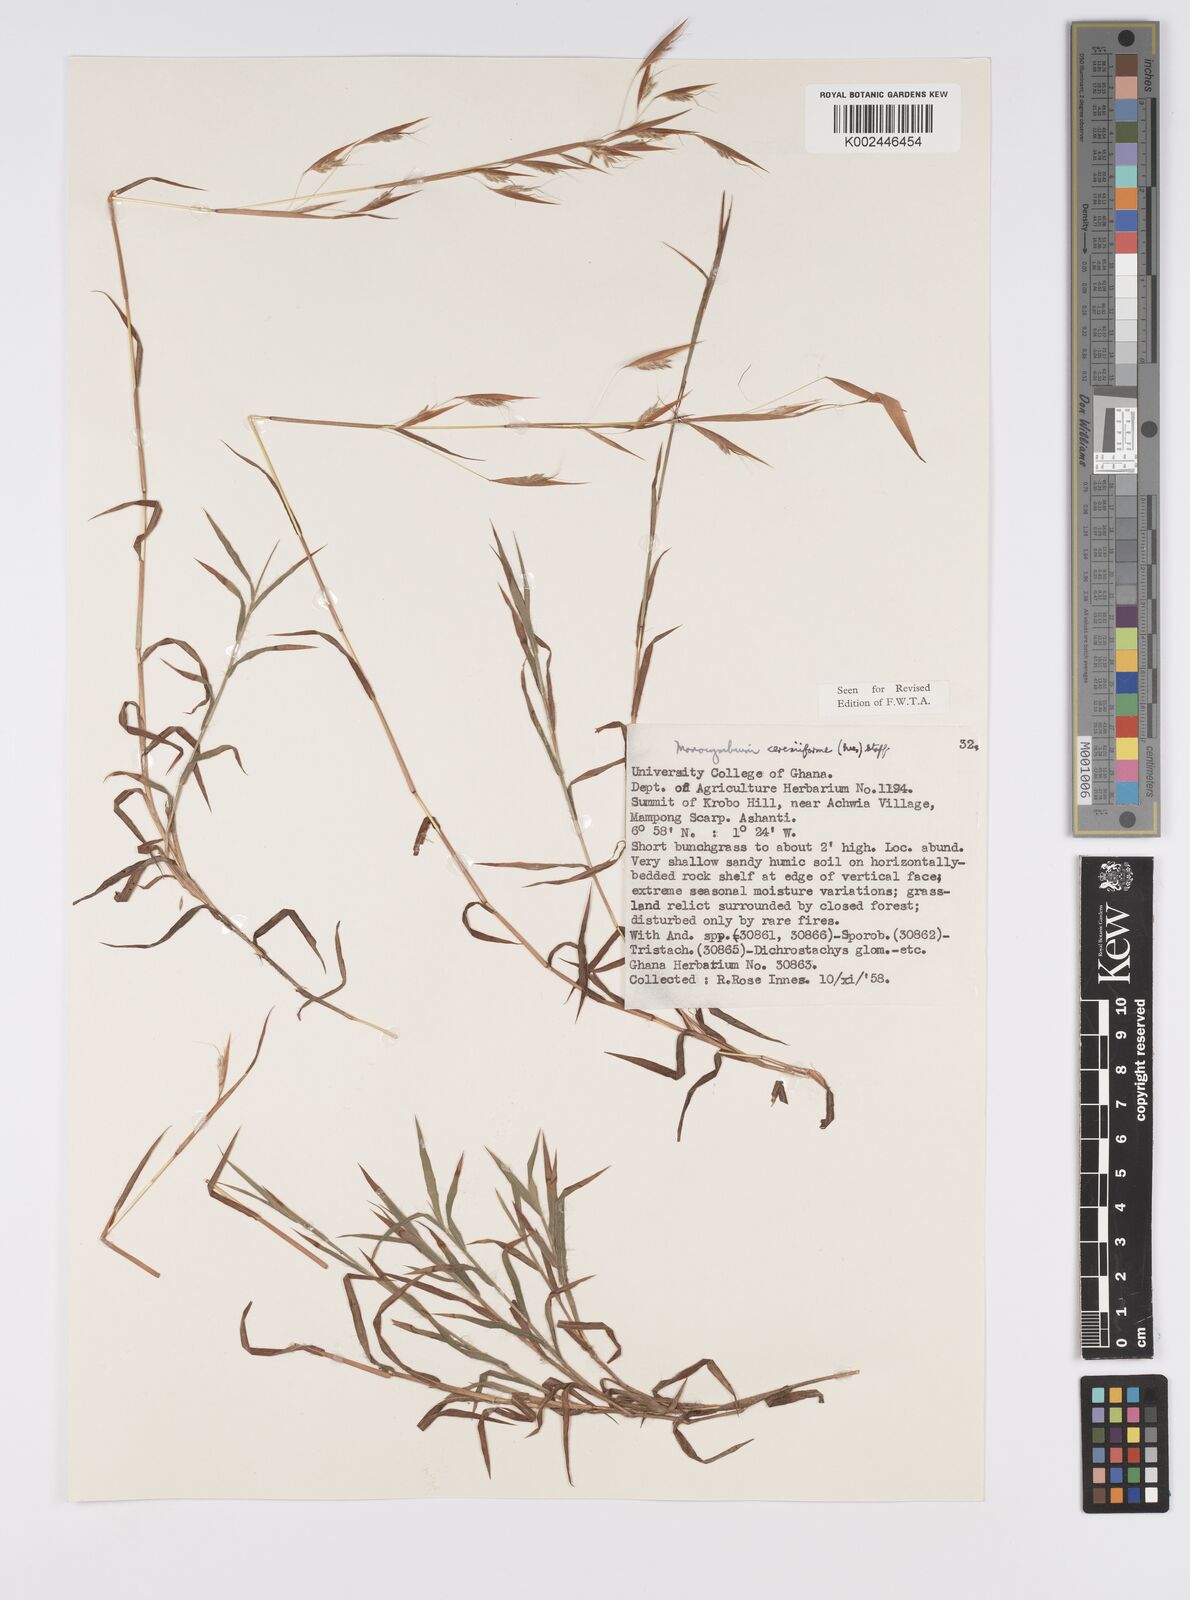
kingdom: Plantae
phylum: Tracheophyta
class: Liliopsida
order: Poales
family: Poaceae
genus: Monocymbium
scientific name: Monocymbium ceresiiforme
